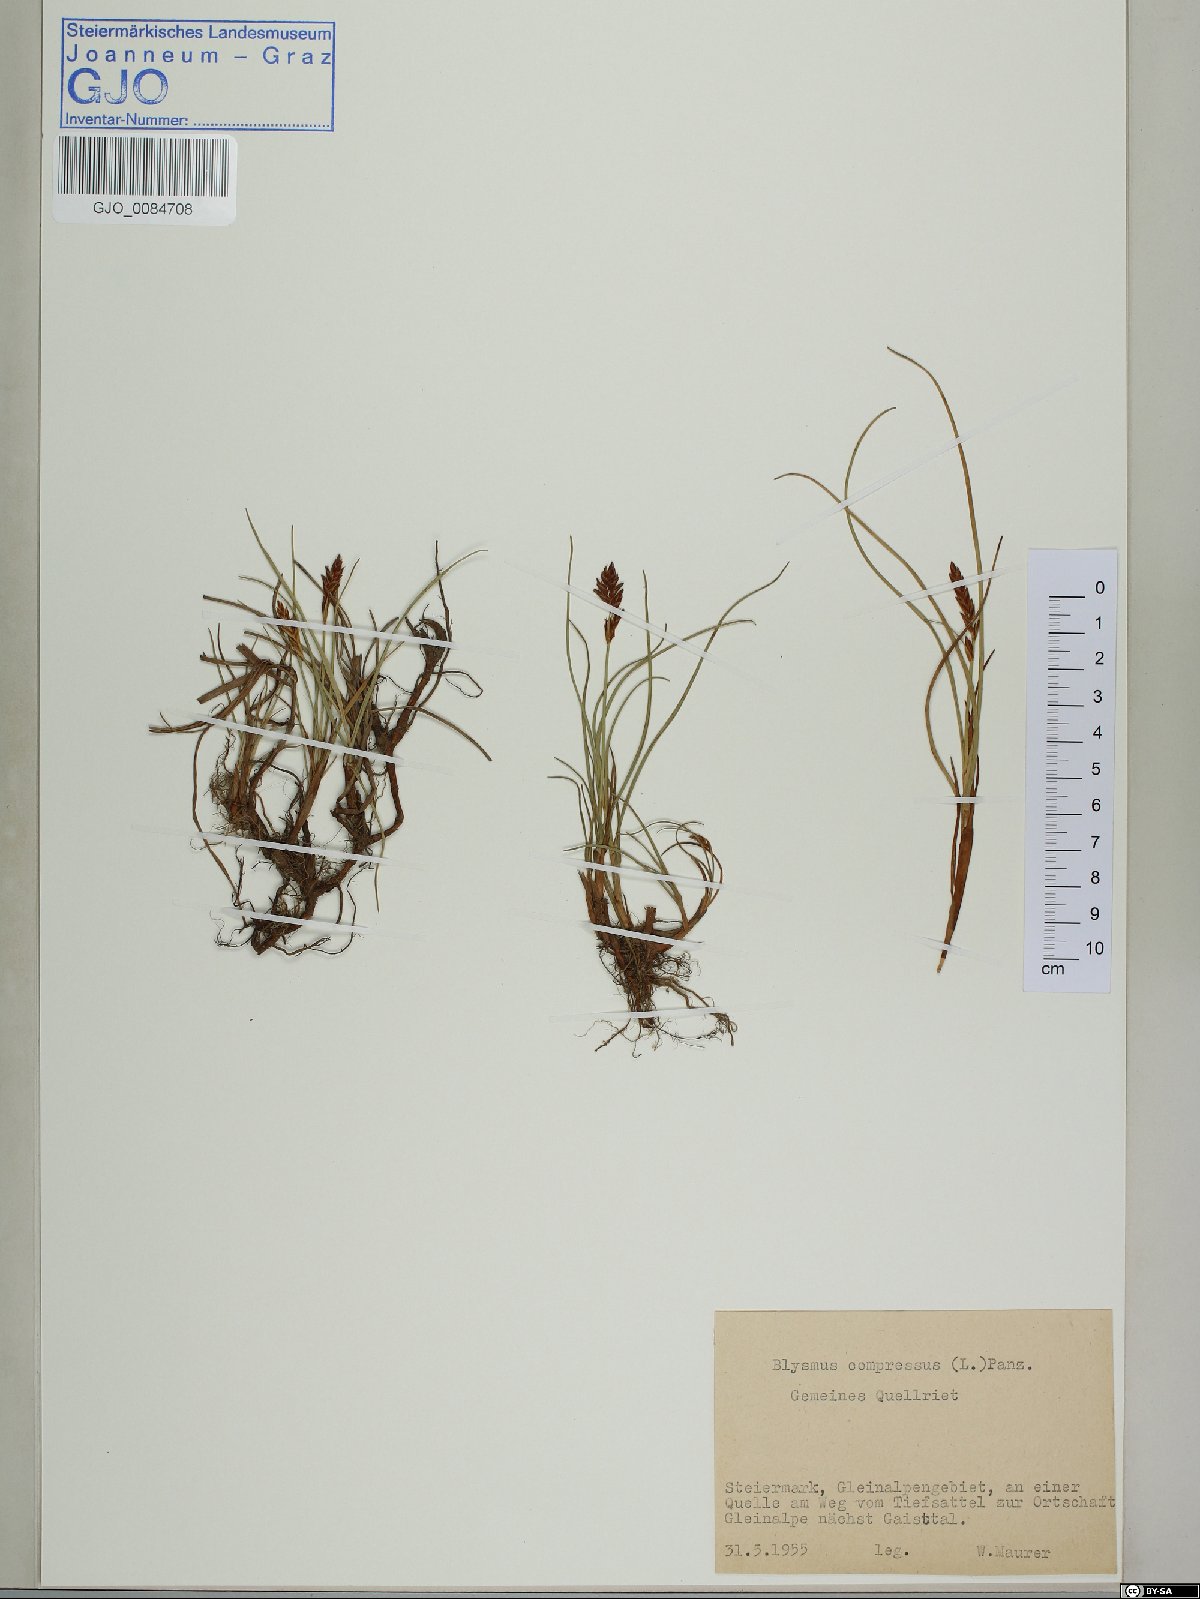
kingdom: Plantae
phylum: Tracheophyta
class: Liliopsida
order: Poales
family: Cyperaceae
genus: Blysmus
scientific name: Blysmus compressus
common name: Flat-sedge
